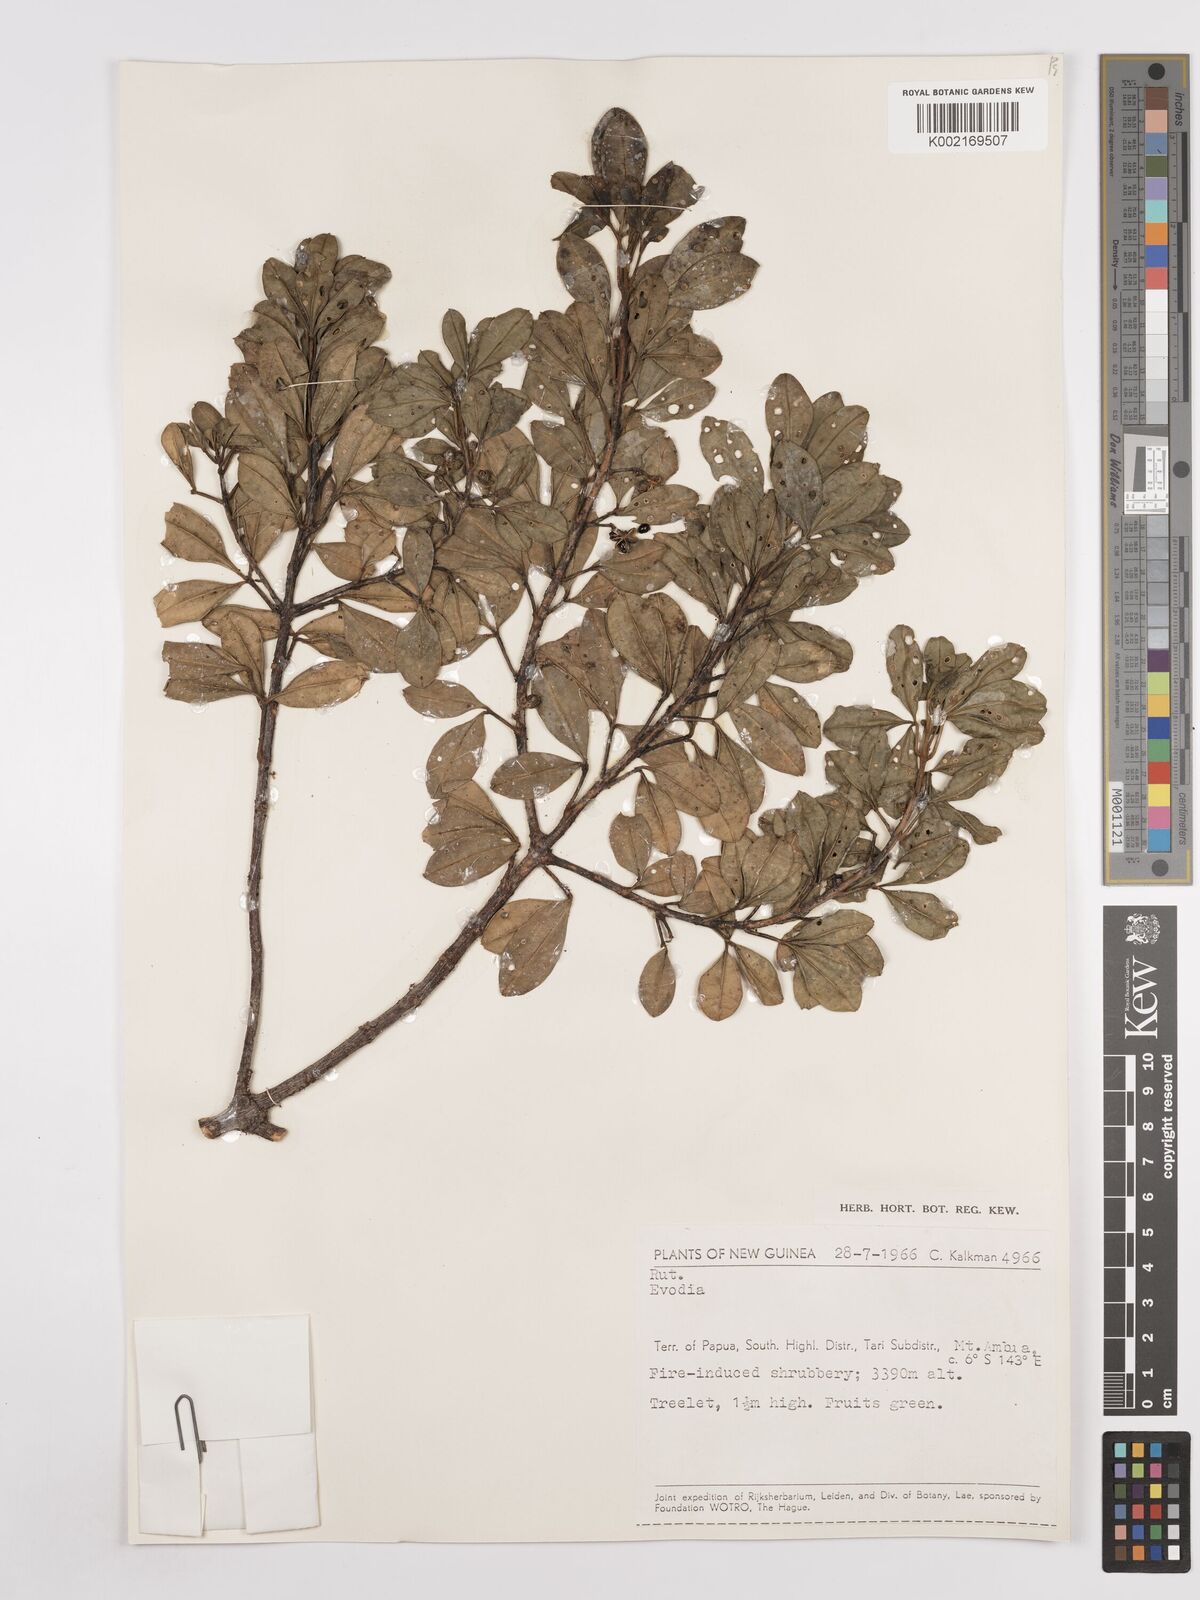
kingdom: Plantae
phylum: Tracheophyta
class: Magnoliopsida
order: Sapindales
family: Rutaceae
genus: Euodia
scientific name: Euodia
